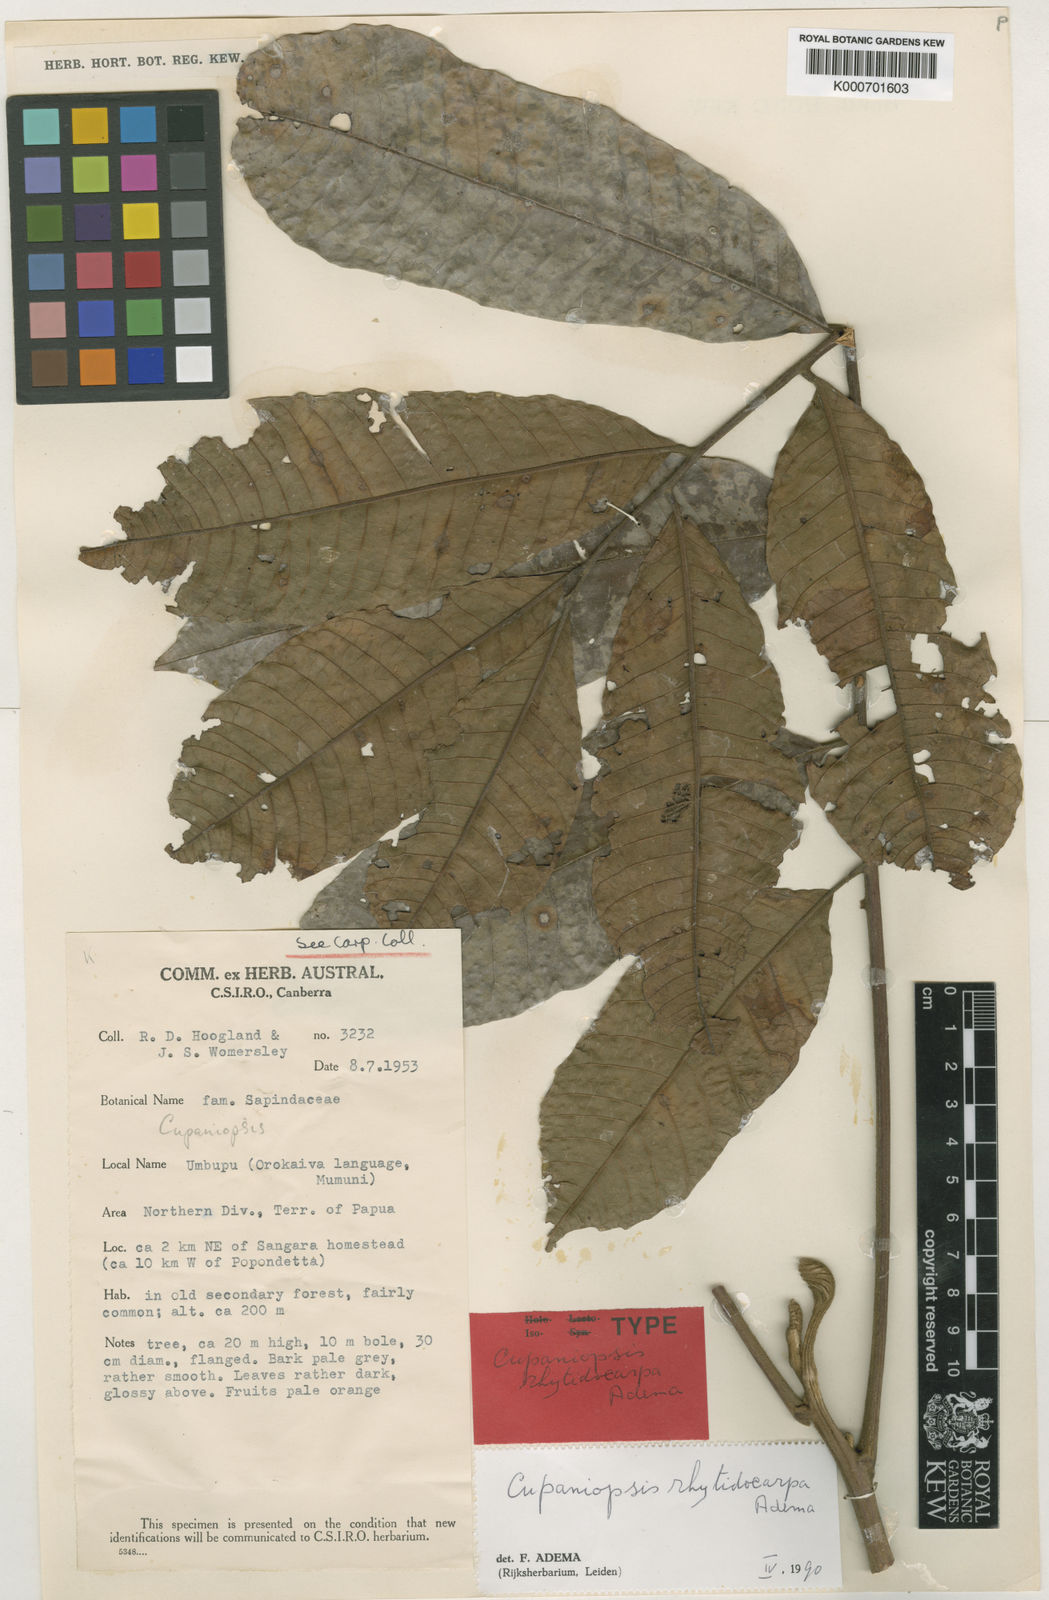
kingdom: Plantae
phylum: Tracheophyta
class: Magnoliopsida
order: Sapindales
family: Sapindaceae
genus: Cupaniopsis
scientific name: Cupaniopsis rhytidocarpa
